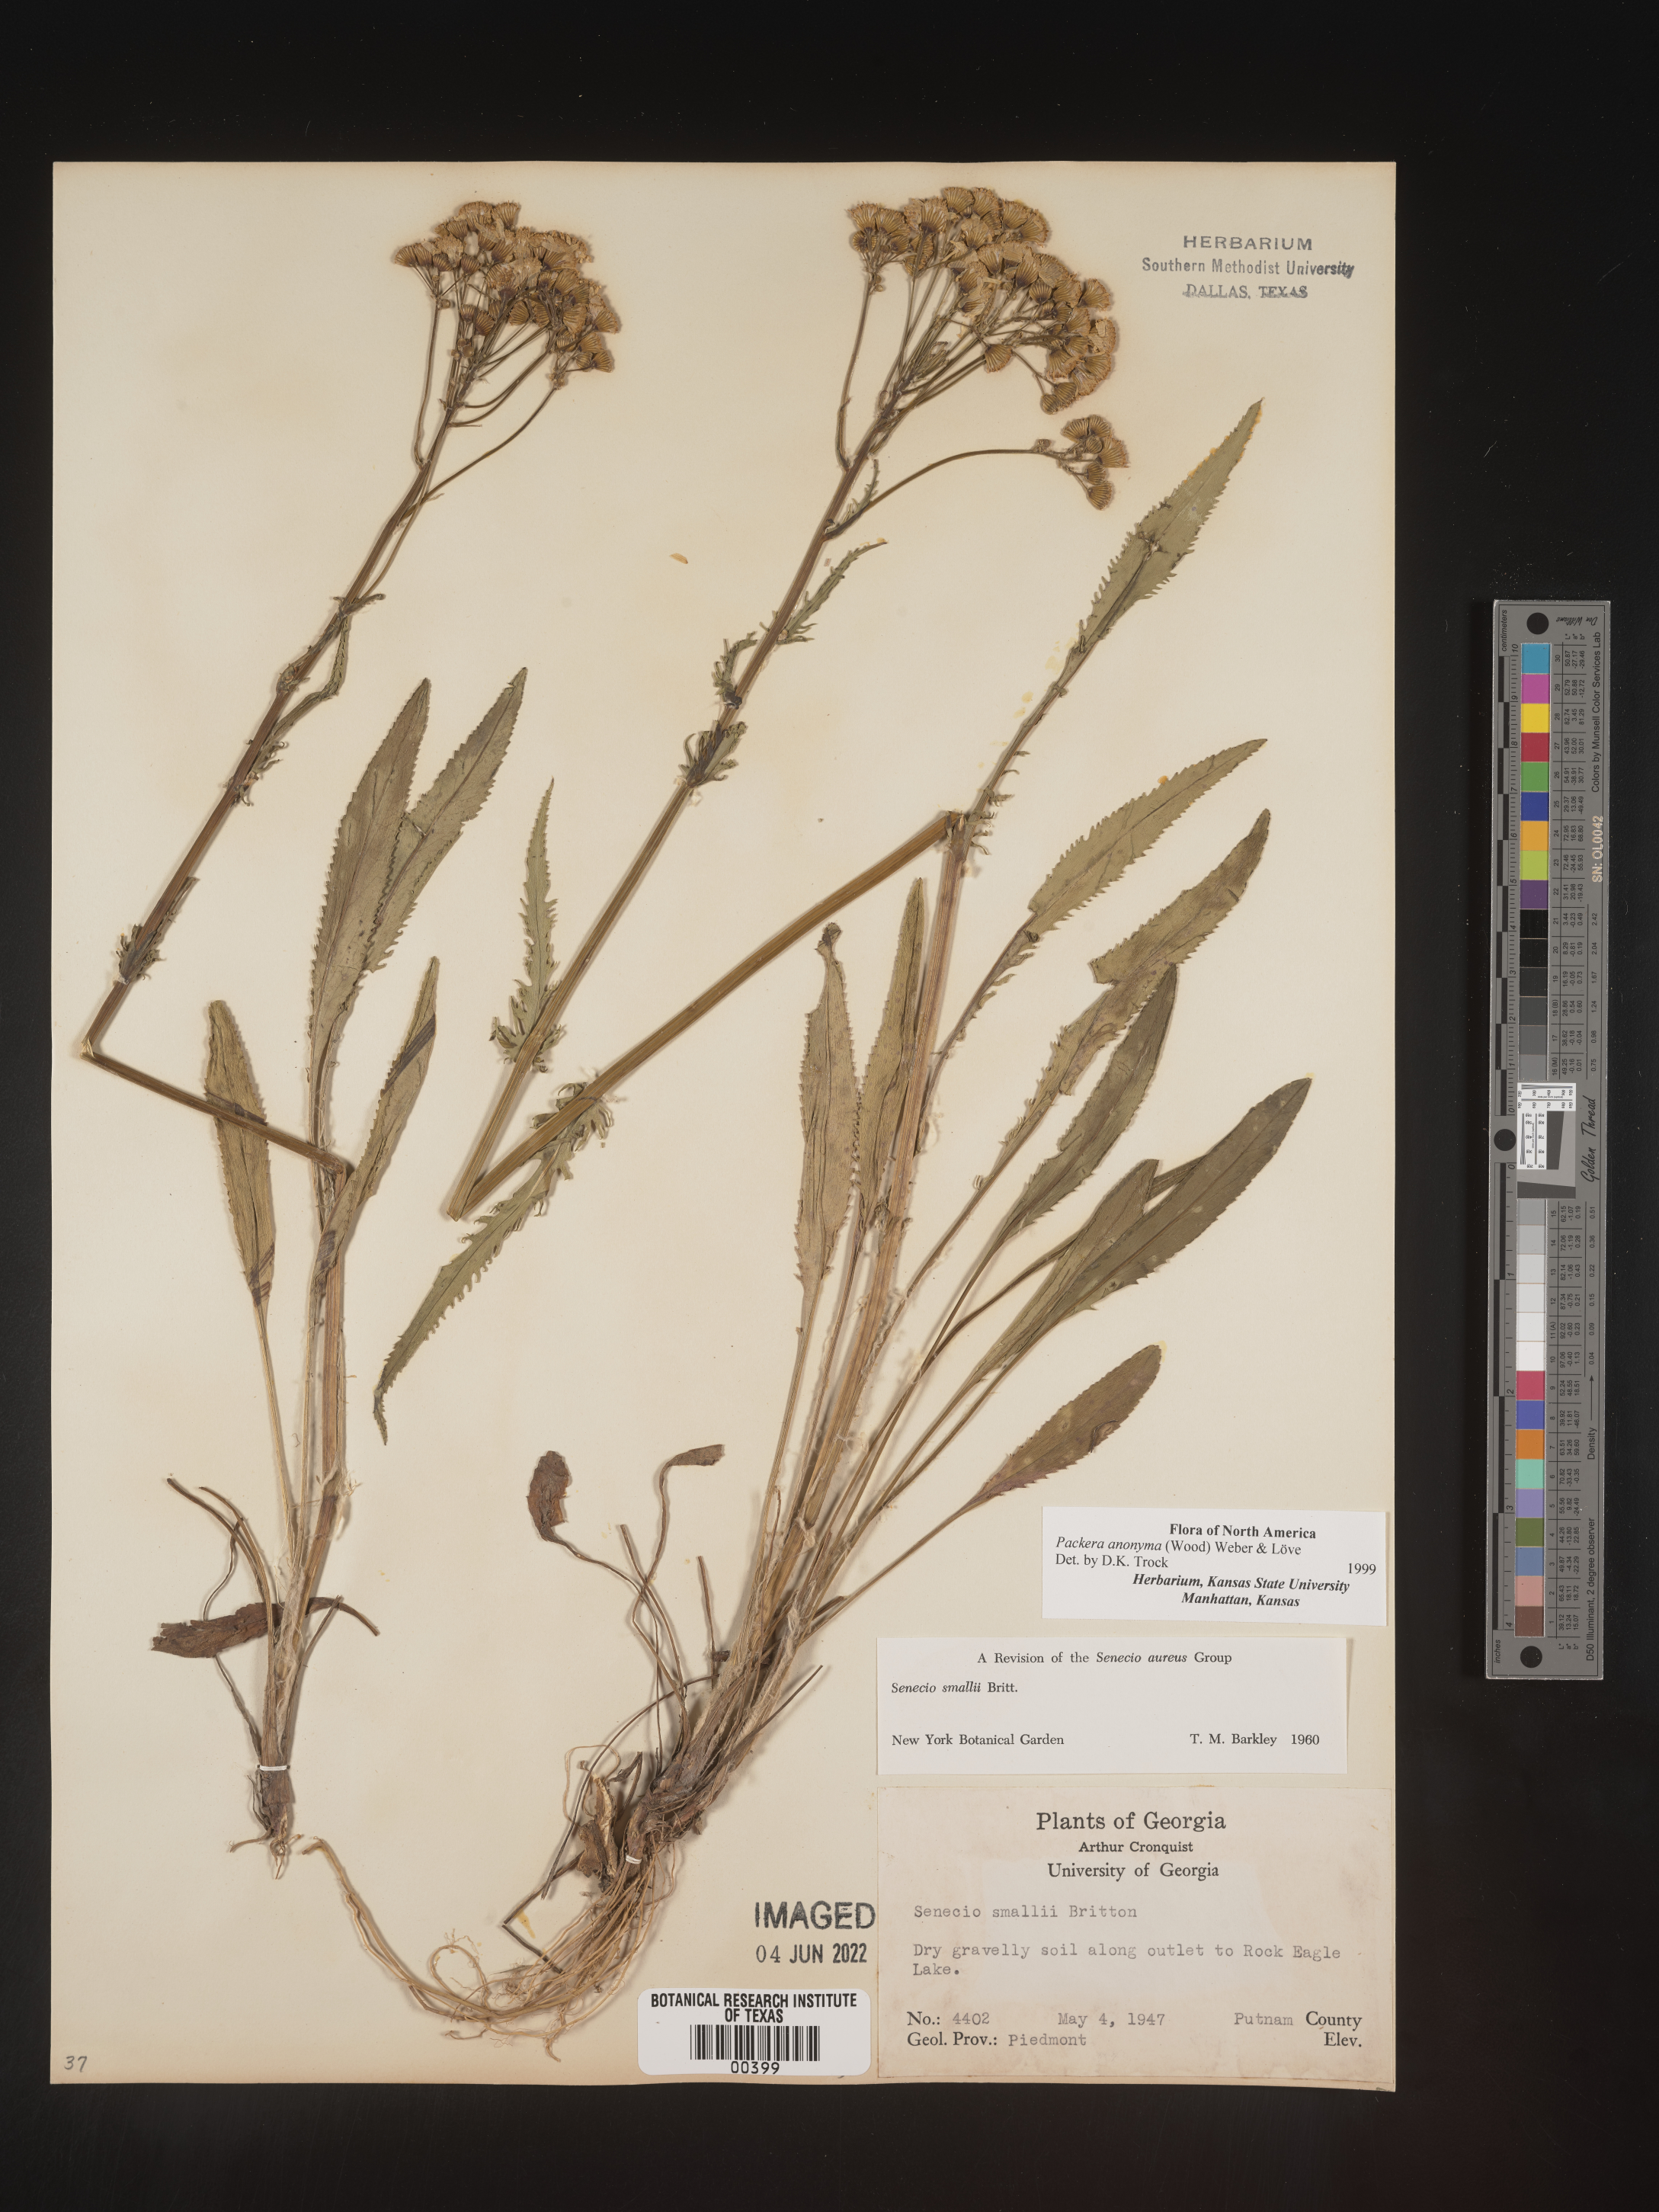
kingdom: Plantae
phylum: Tracheophyta
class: Magnoliopsida
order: Asterales
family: Asteraceae
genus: Packera
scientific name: Packera anonyma
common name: Small ragwort
